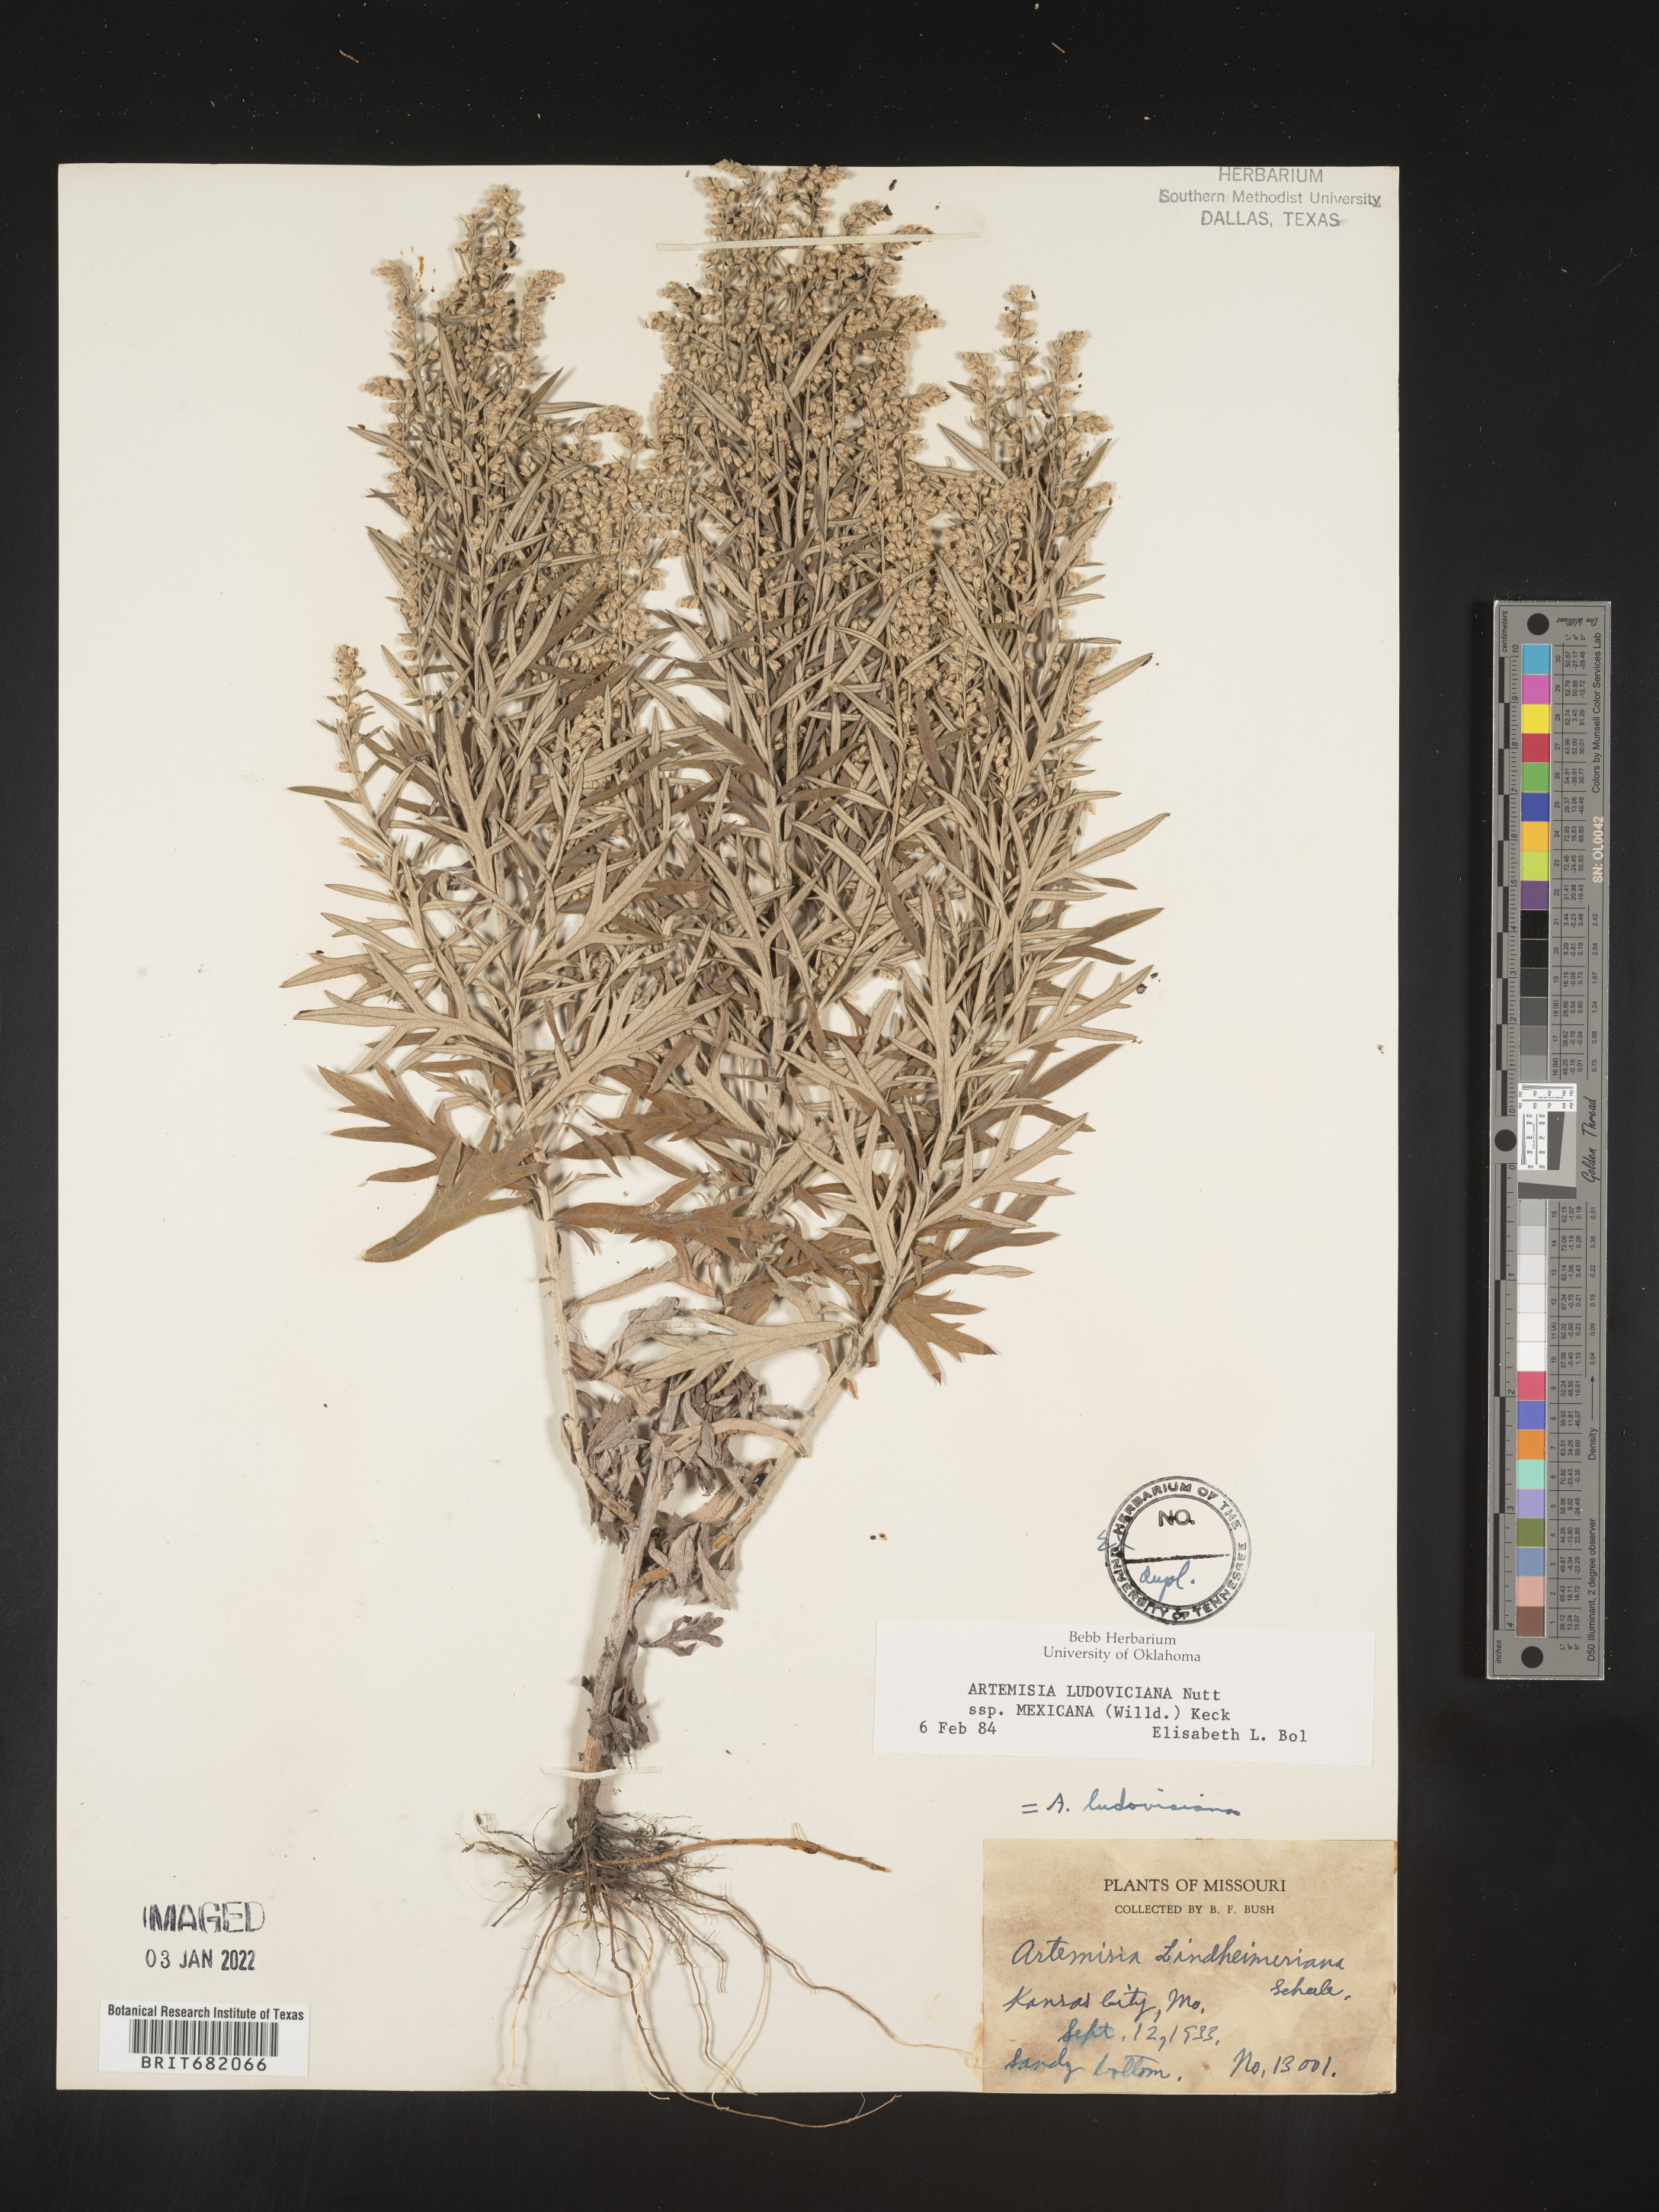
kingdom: Plantae
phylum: Tracheophyta
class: Magnoliopsida
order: Asterales
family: Asteraceae
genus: Artemisia
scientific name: Artemisia ludoviciana
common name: Western mugwort
